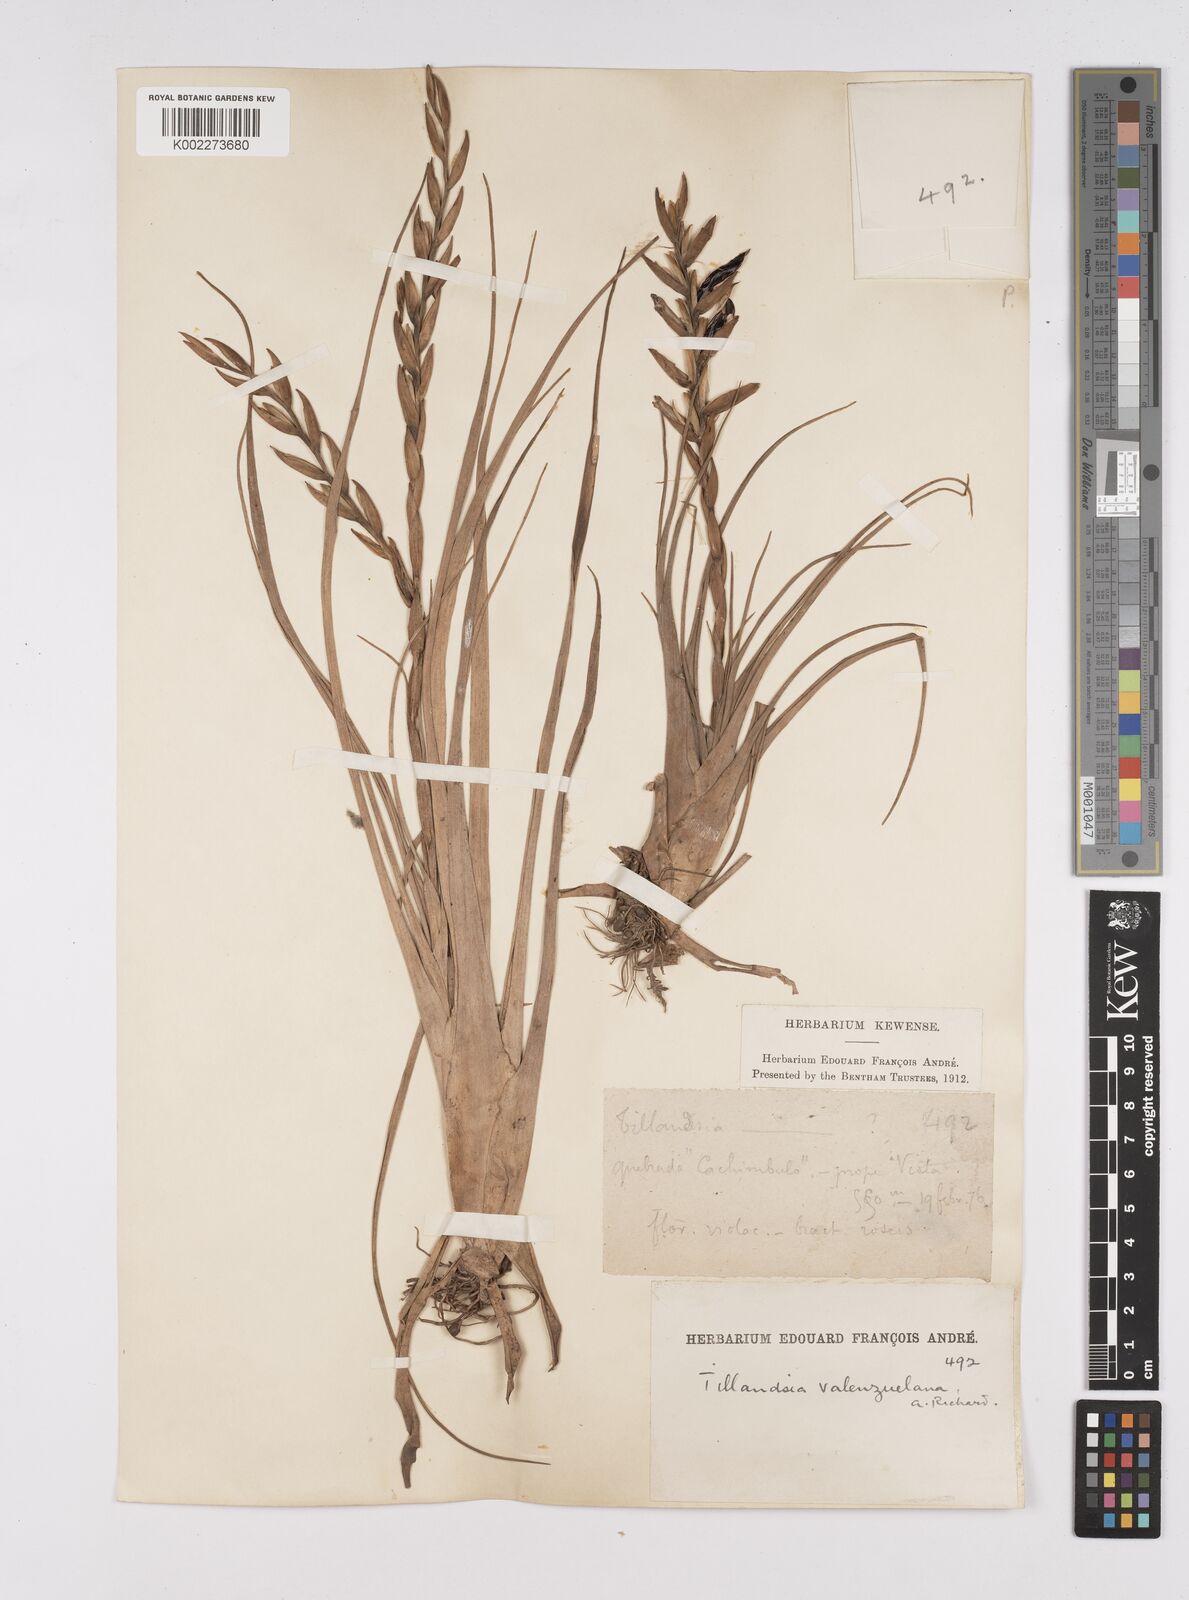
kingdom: Plantae
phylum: Tracheophyta
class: Liliopsida
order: Poales
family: Bromeliaceae
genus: Tillandsia
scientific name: Tillandsia variabilis
